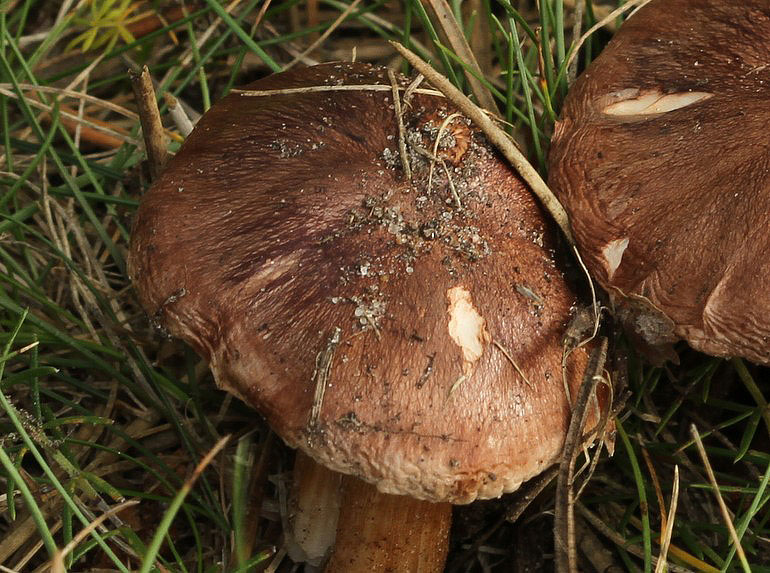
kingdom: Fungi
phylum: Basidiomycota
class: Agaricomycetes
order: Agaricales
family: Tricholomataceae
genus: Tricholoma
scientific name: Tricholoma albobrunneum
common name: kastanie-ridderhat
